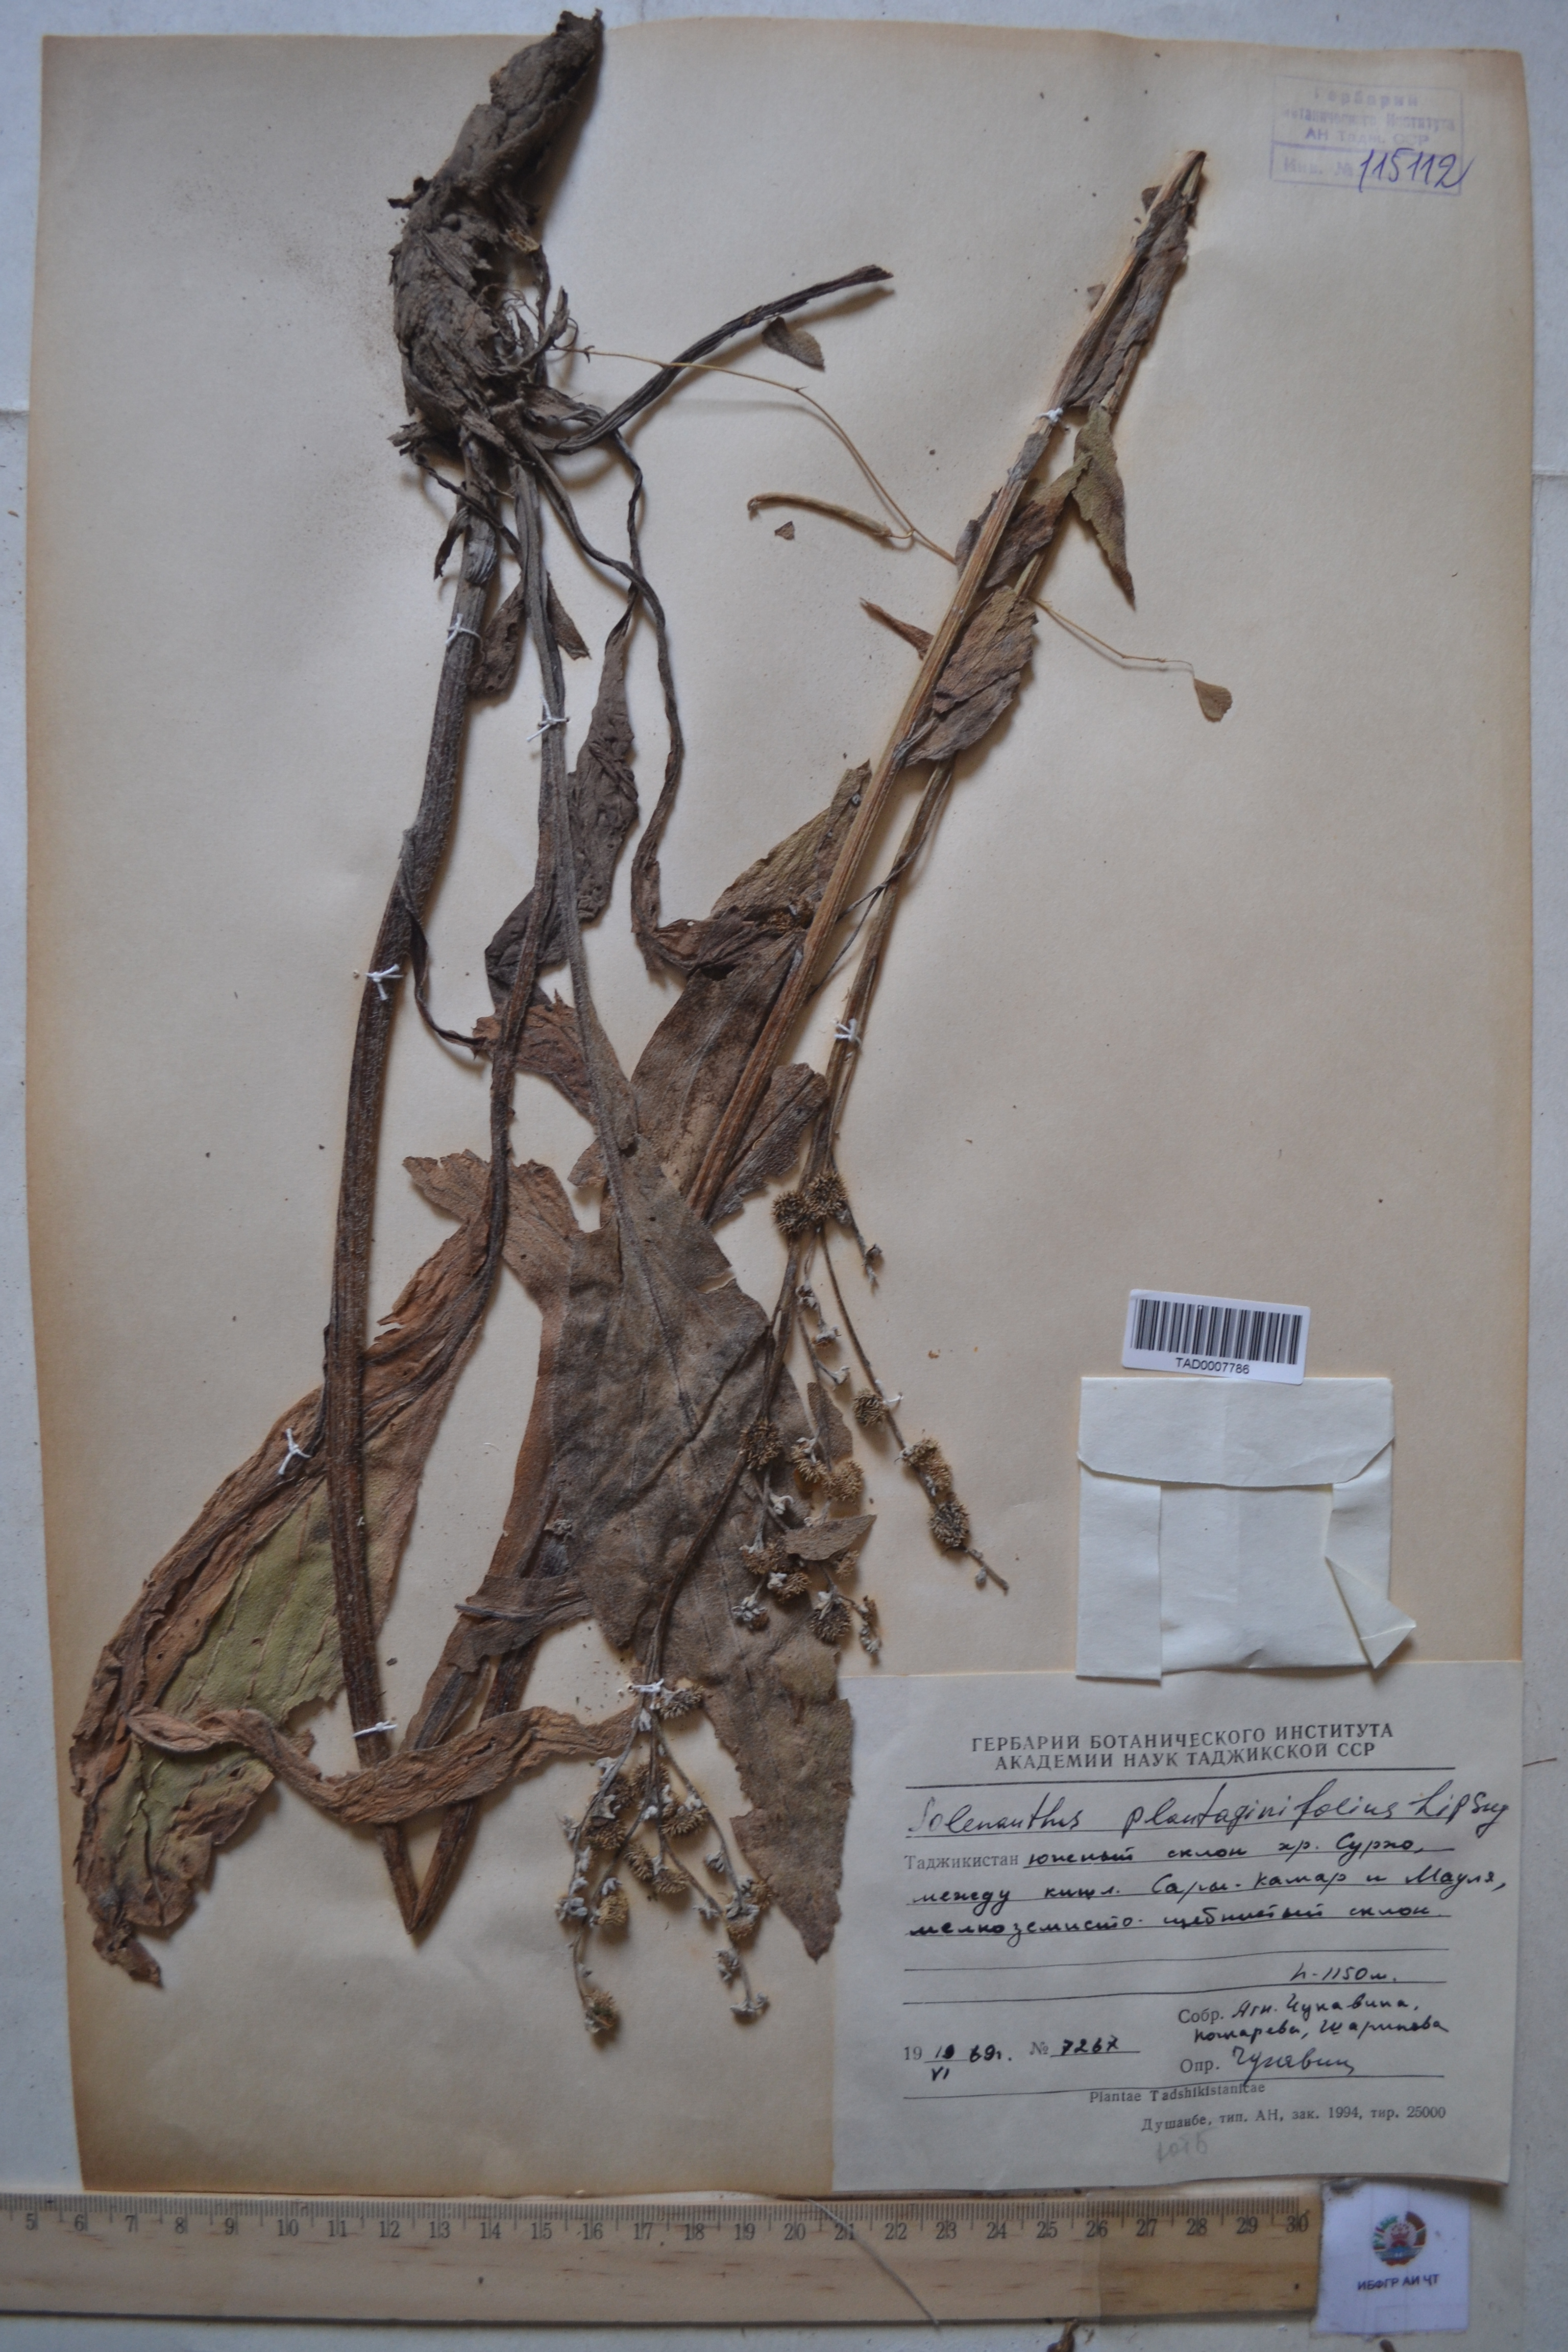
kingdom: Plantae
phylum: Tracheophyta
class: Magnoliopsida
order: Boraginales
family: Boraginaceae
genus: Solenanthus
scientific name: Solenanthus plantaginifolius
